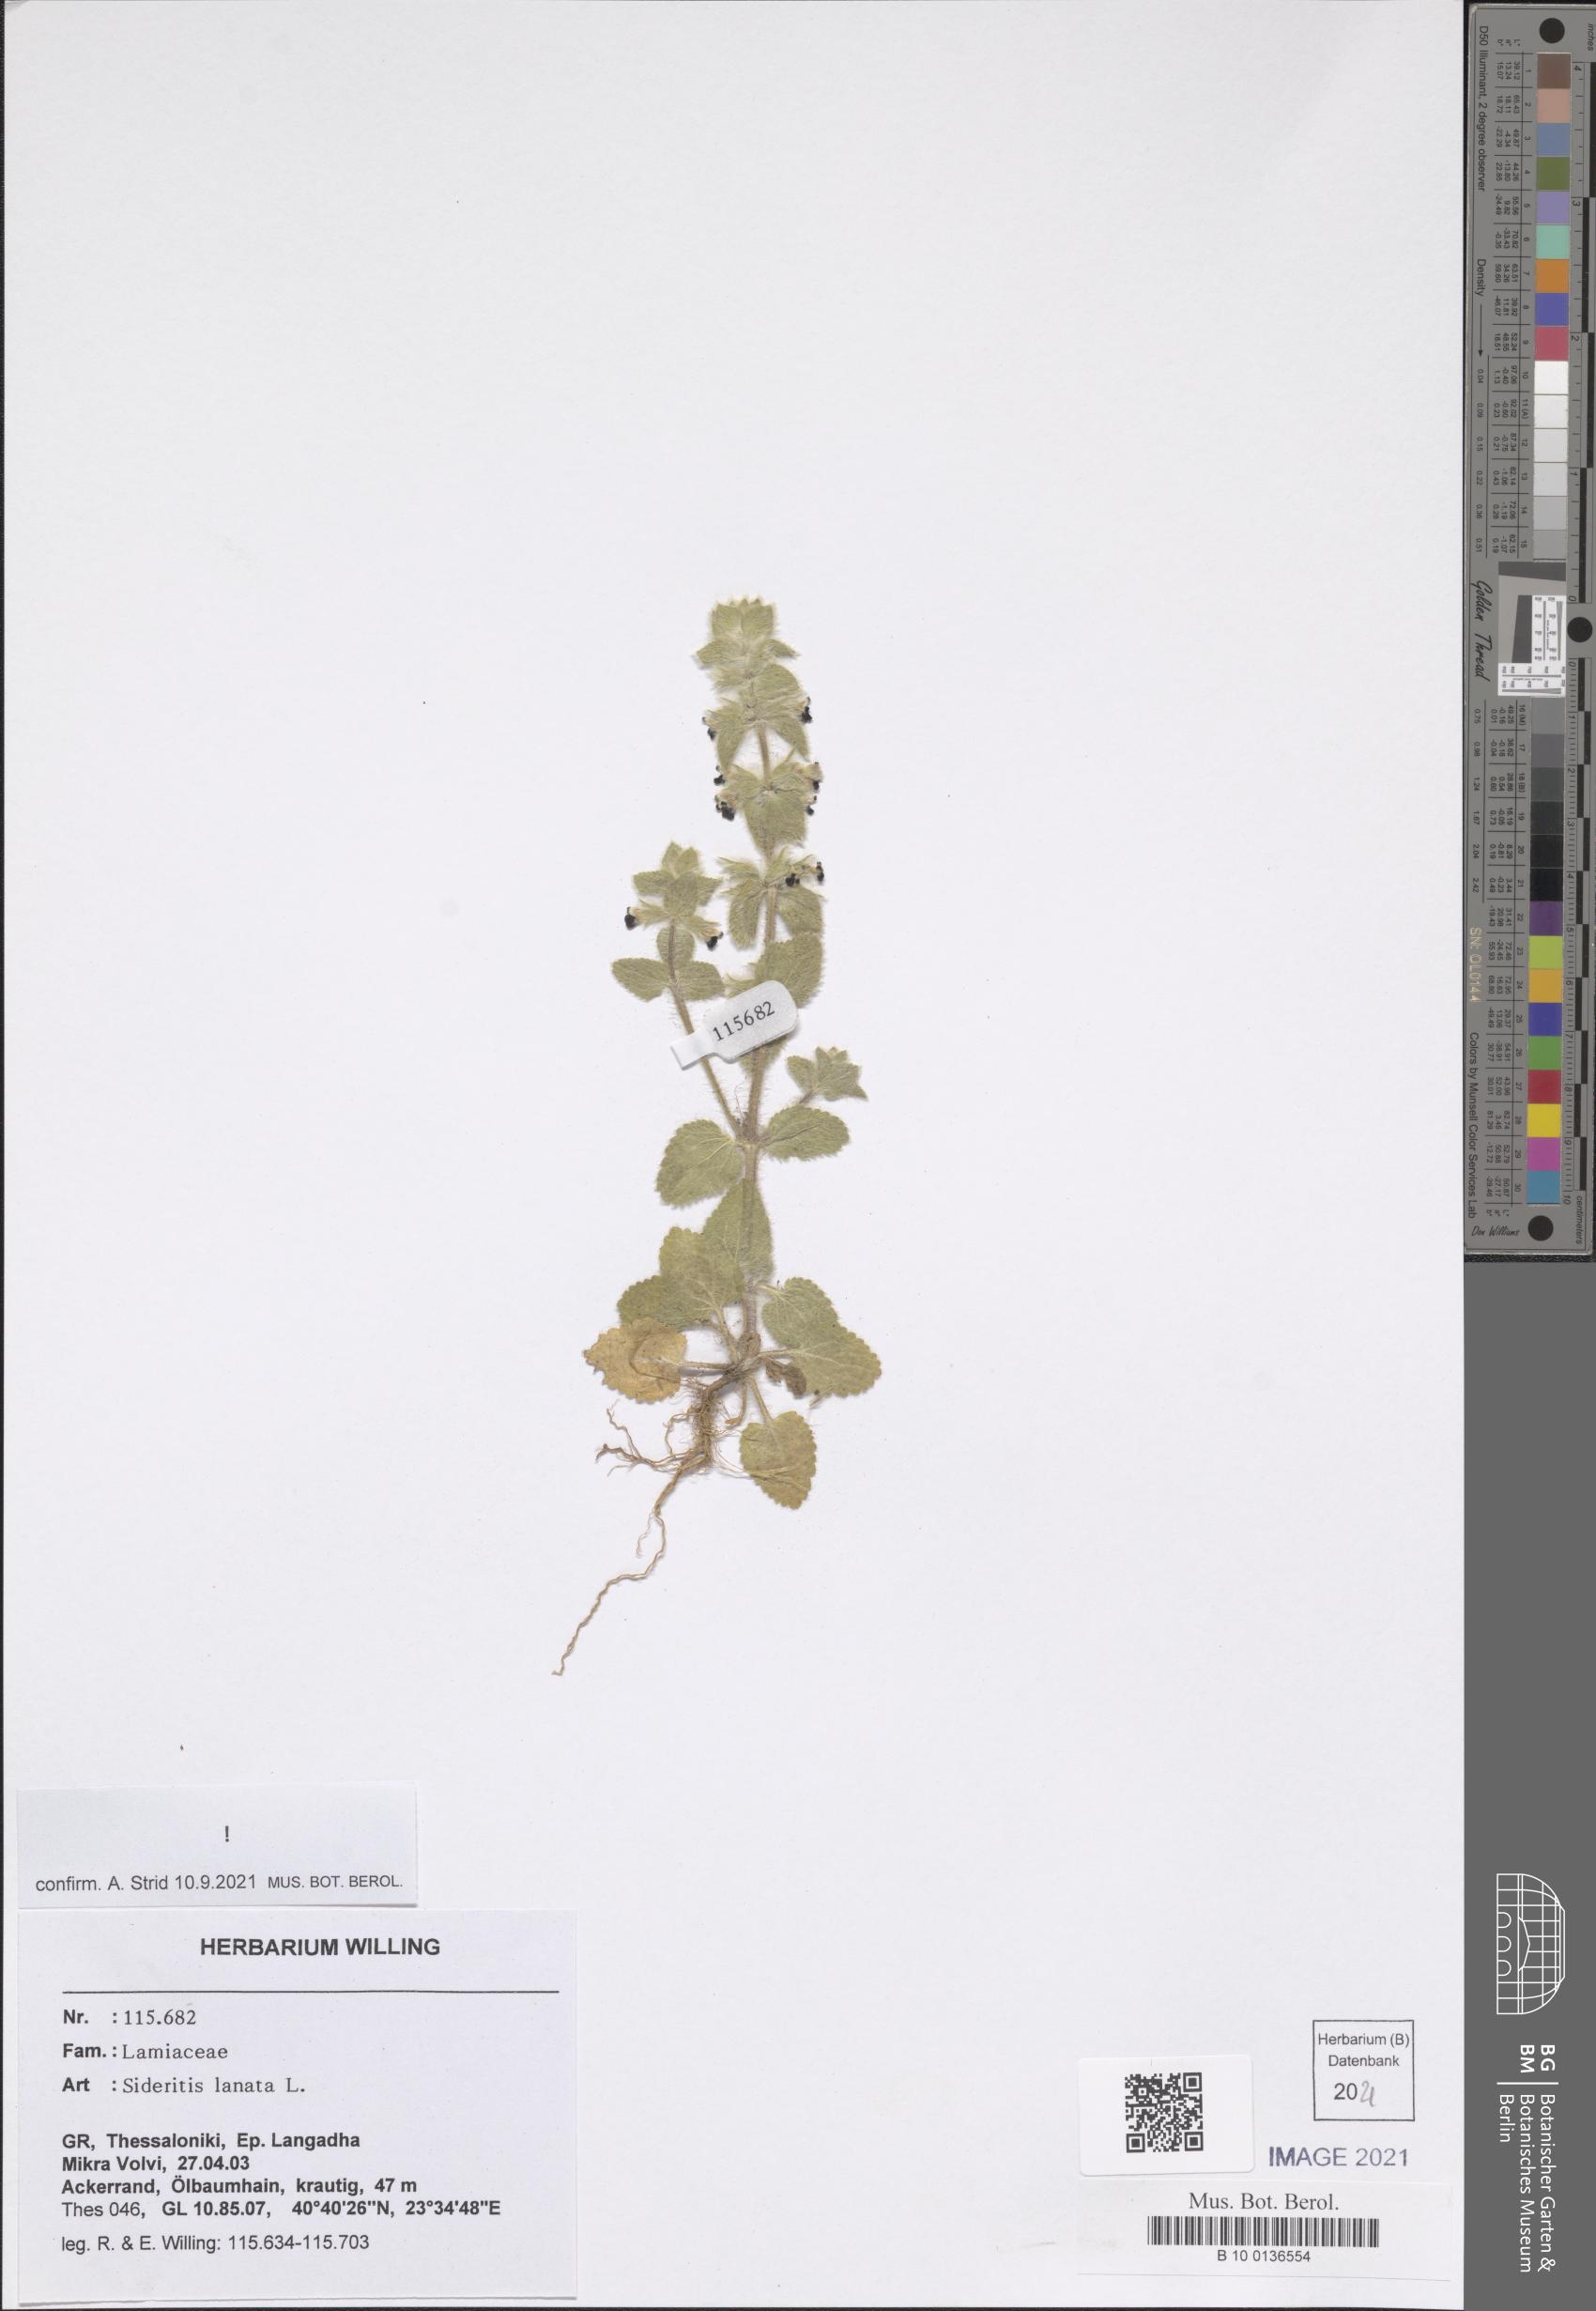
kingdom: Plantae
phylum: Tracheophyta
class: Magnoliopsida
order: Lamiales
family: Lamiaceae
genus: Sideritis
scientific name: Sideritis lanata
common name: Hairy ironwort
